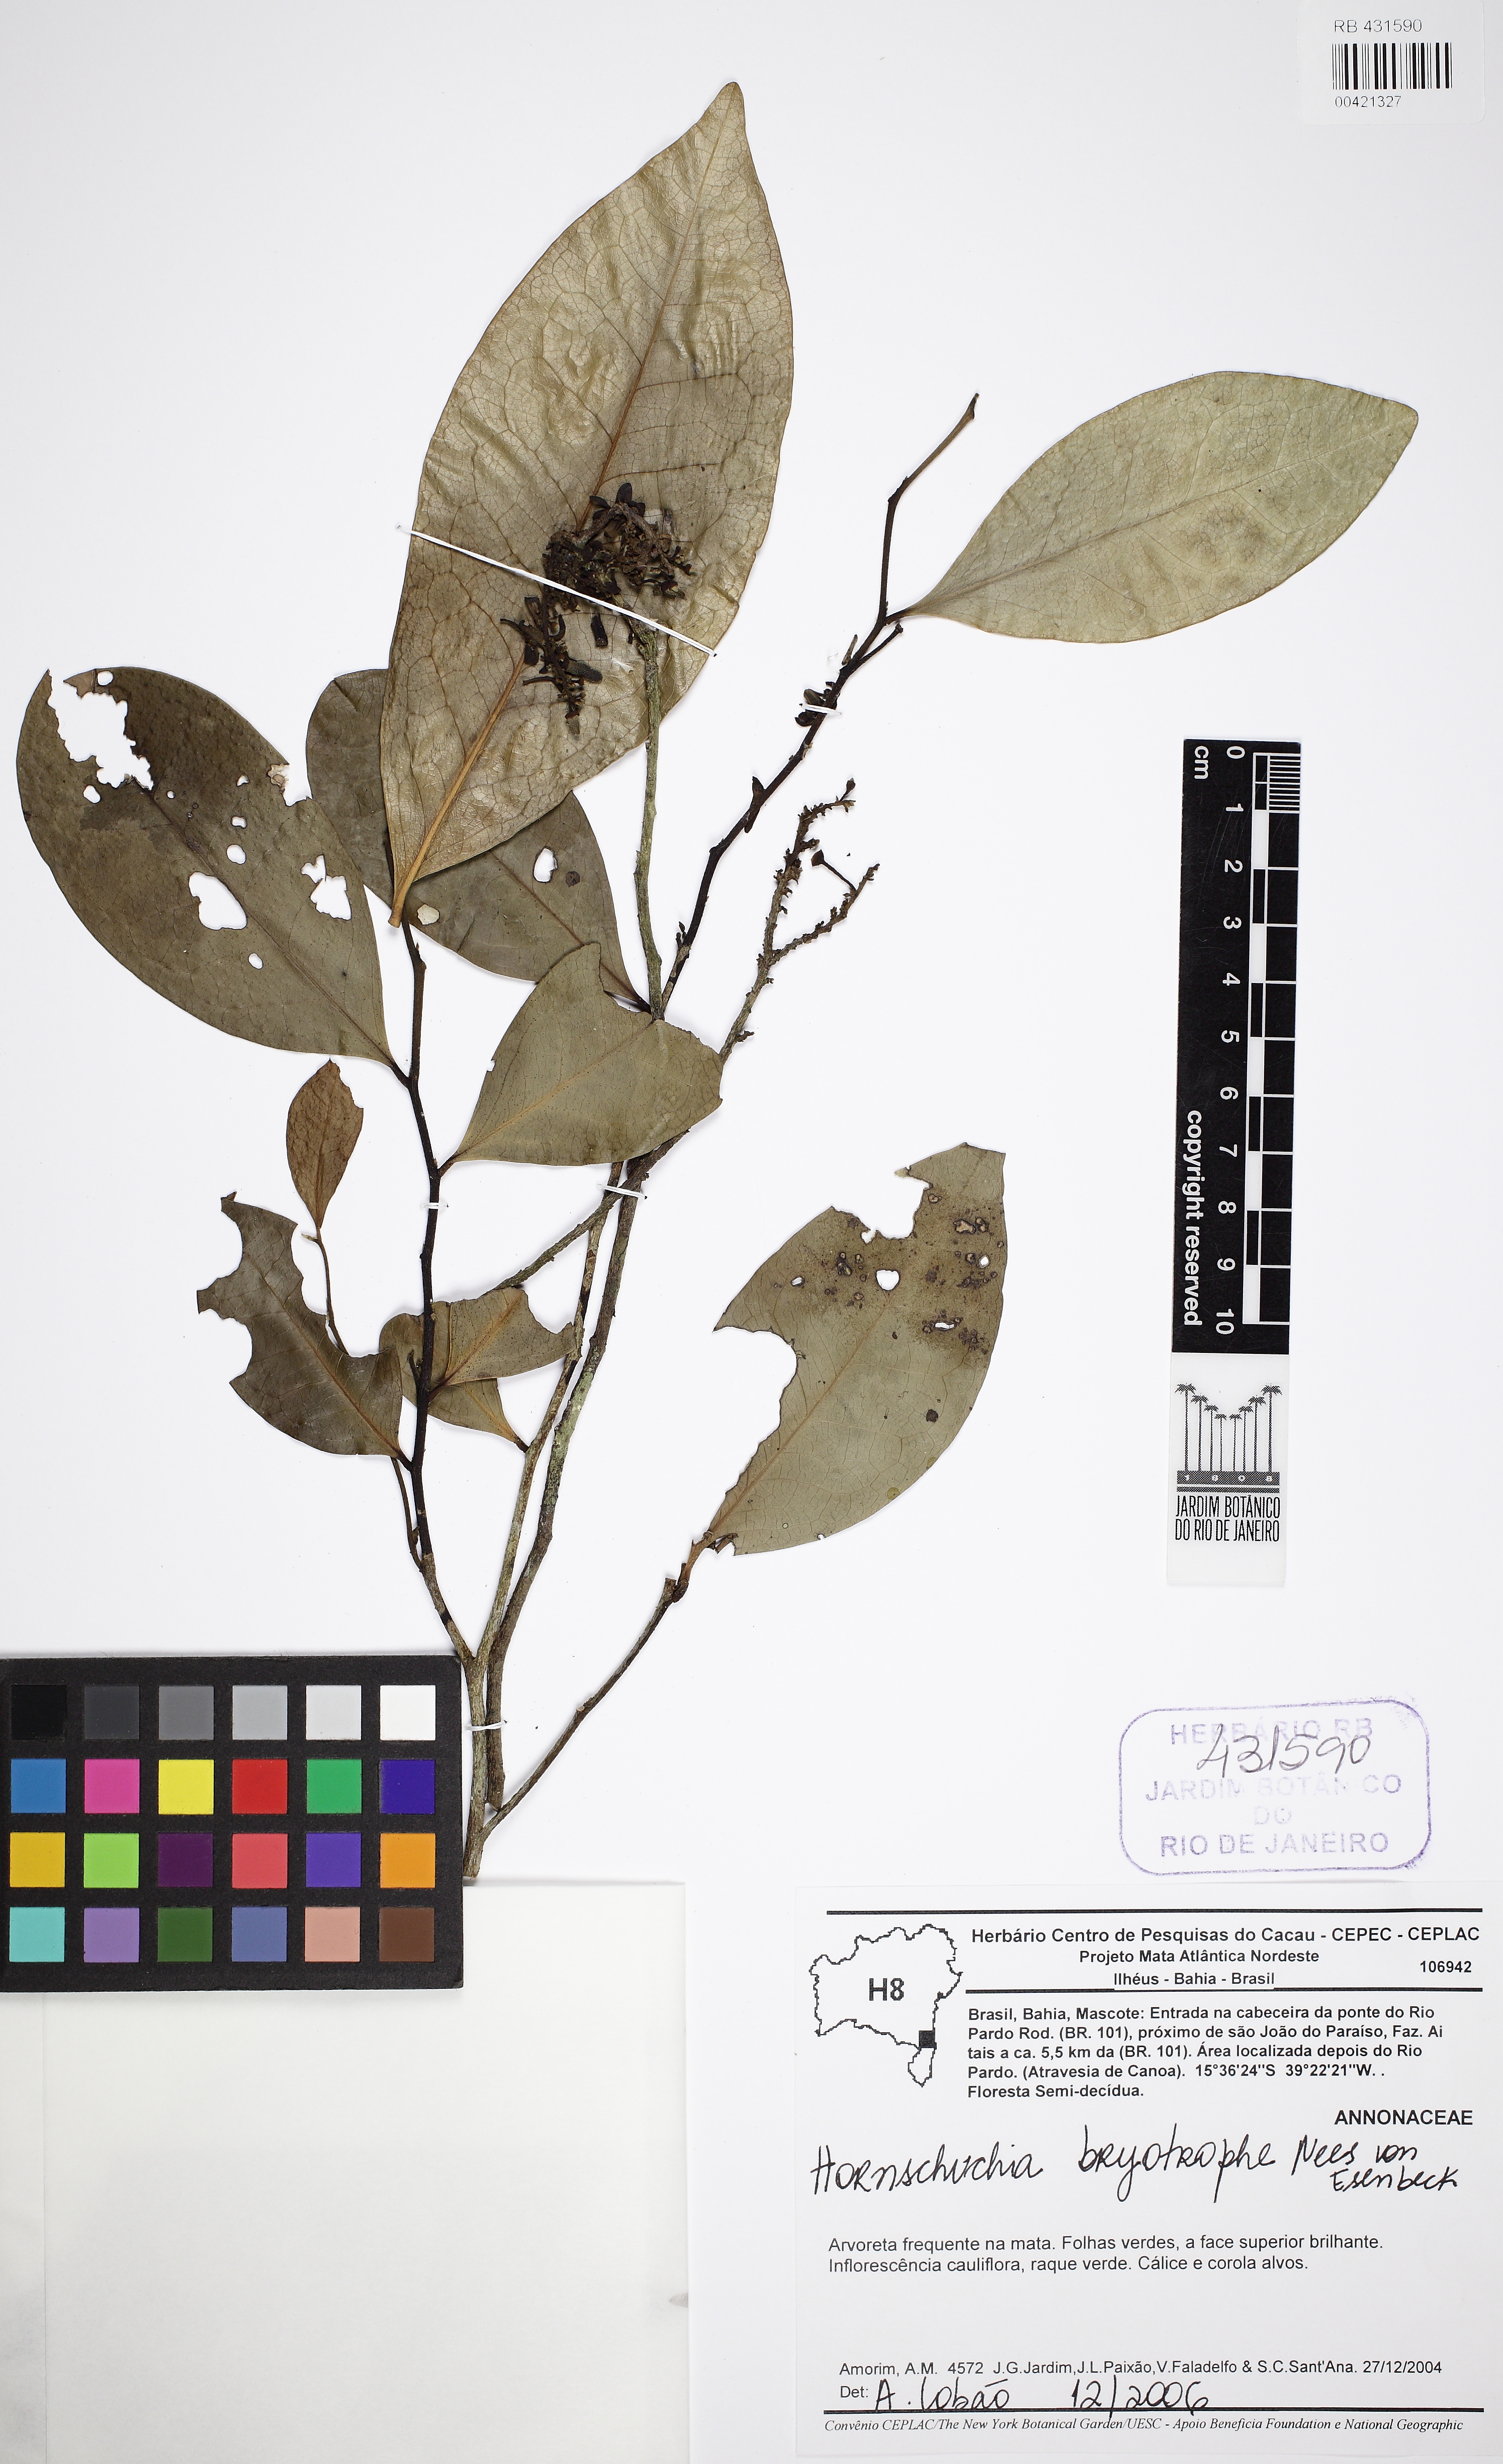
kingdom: Plantae
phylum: Tracheophyta
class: Magnoliopsida
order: Magnoliales
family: Annonaceae
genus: Hornschuchia
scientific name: Hornschuchia myrtillus
